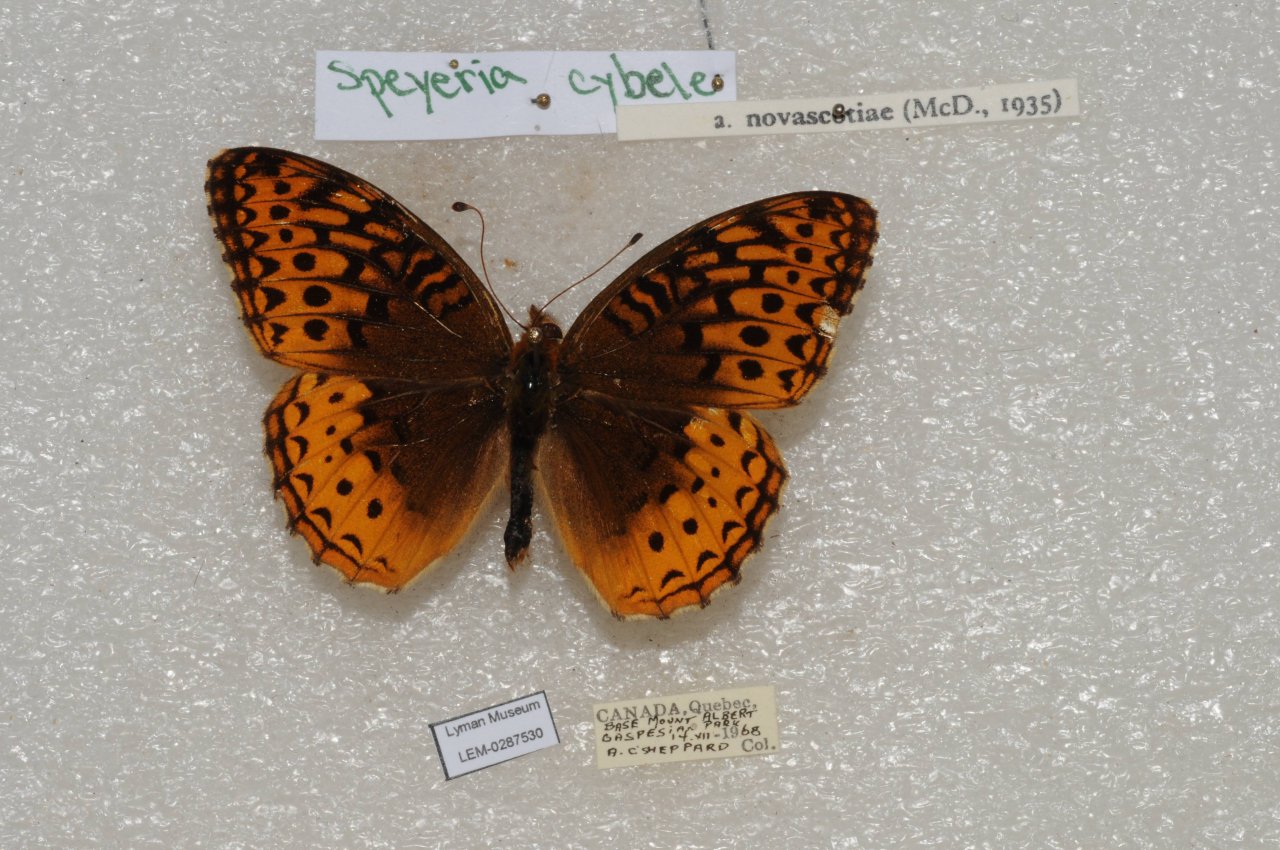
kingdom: Animalia
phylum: Arthropoda
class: Insecta
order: Lepidoptera
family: Nymphalidae
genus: Speyeria
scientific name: Speyeria cybele
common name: Great Spangled Fritillary
